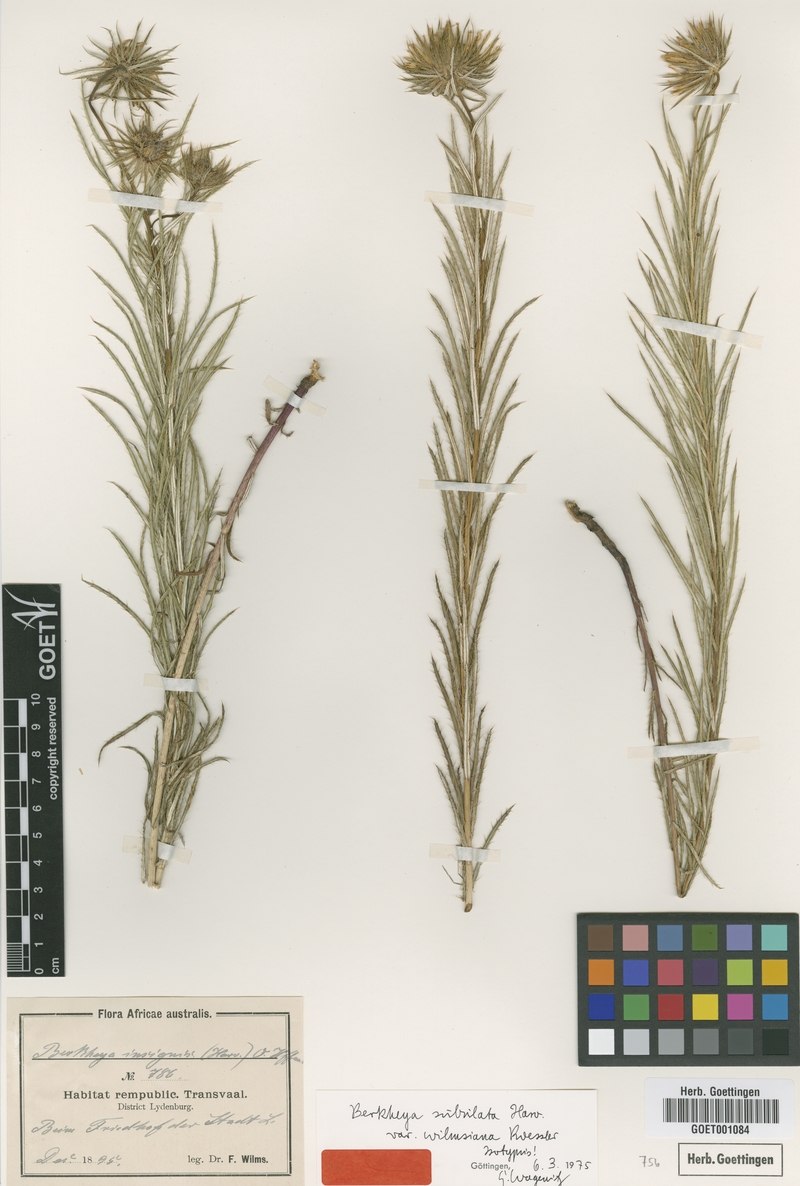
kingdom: Plantae
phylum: Tracheophyta
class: Magnoliopsida
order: Asterales
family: Asteraceae
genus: Berkheya
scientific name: Berkheya subulata
